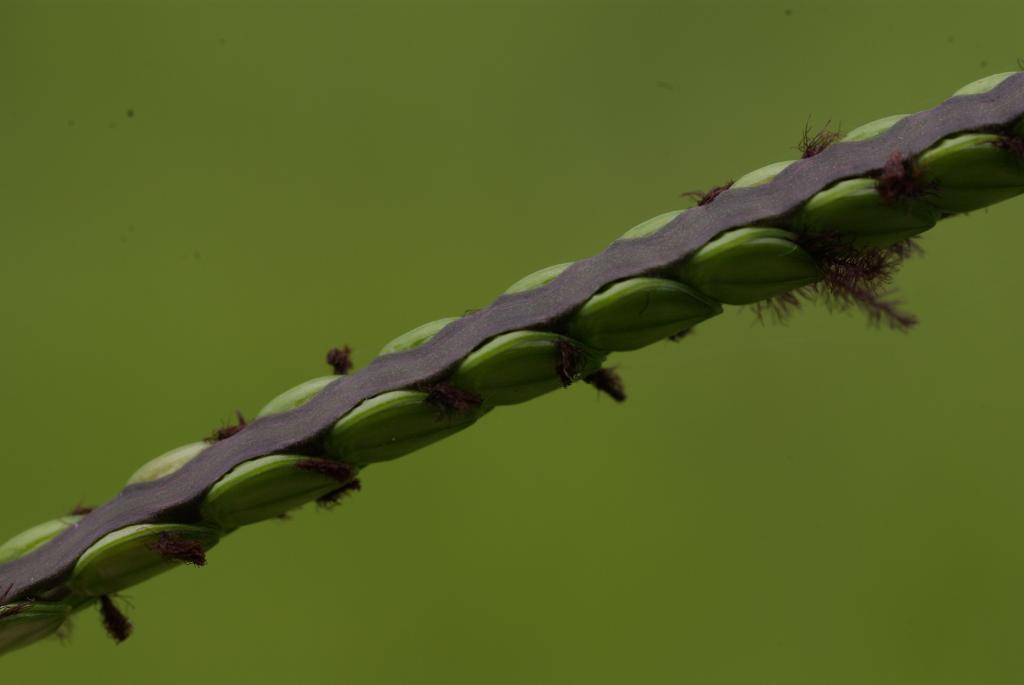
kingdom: Plantae
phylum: Tracheophyta
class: Liliopsida
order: Poales
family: Poaceae
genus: Paspalum
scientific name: Paspalum notatum
